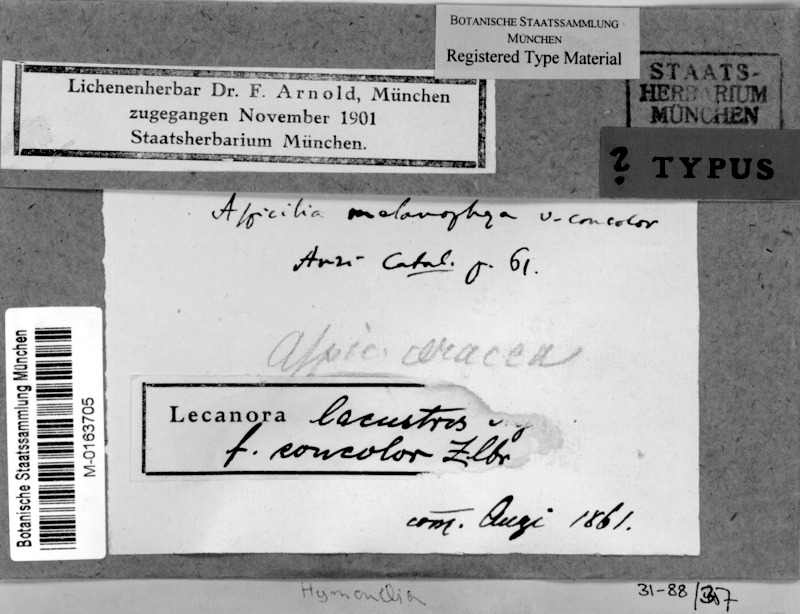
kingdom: Fungi
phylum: Ascomycota
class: Lecanoromycetes
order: Hymeneliales
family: Hymeneliaceae
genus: Tremolecia
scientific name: Tremolecia atrata
